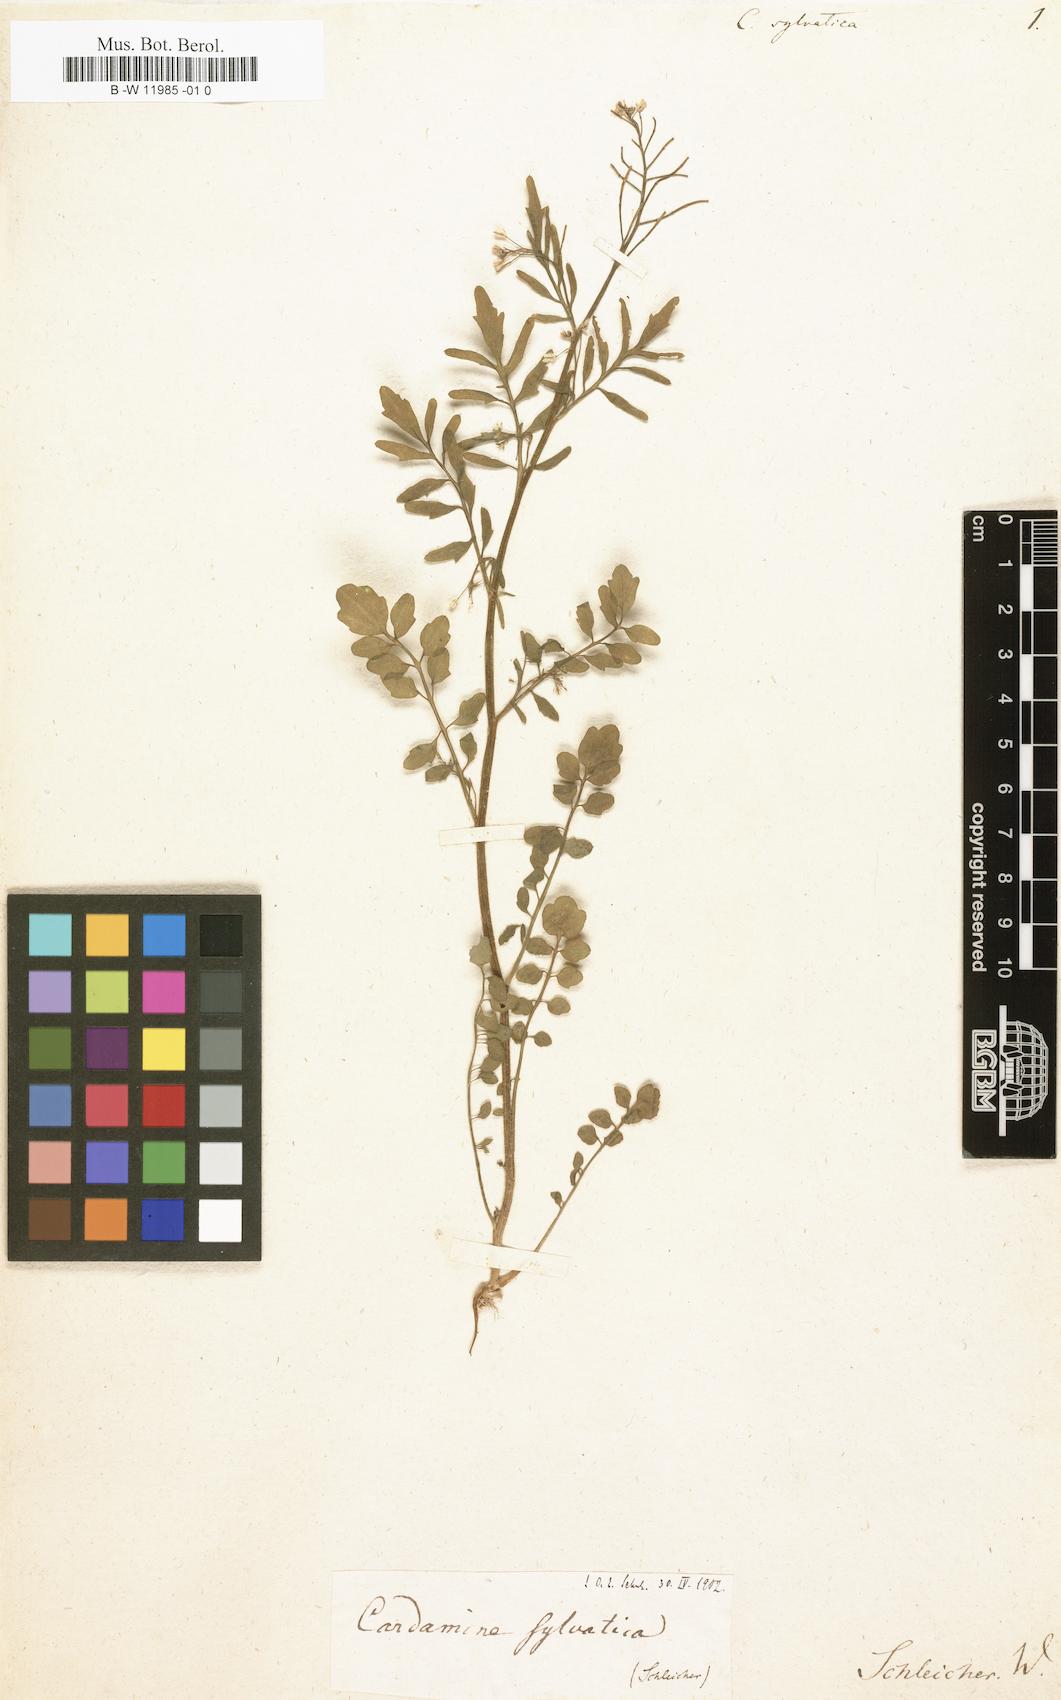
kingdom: Plantae
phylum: Tracheophyta
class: Magnoliopsida
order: Brassicales
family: Brassicaceae
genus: Cardamine
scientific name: Cardamine
